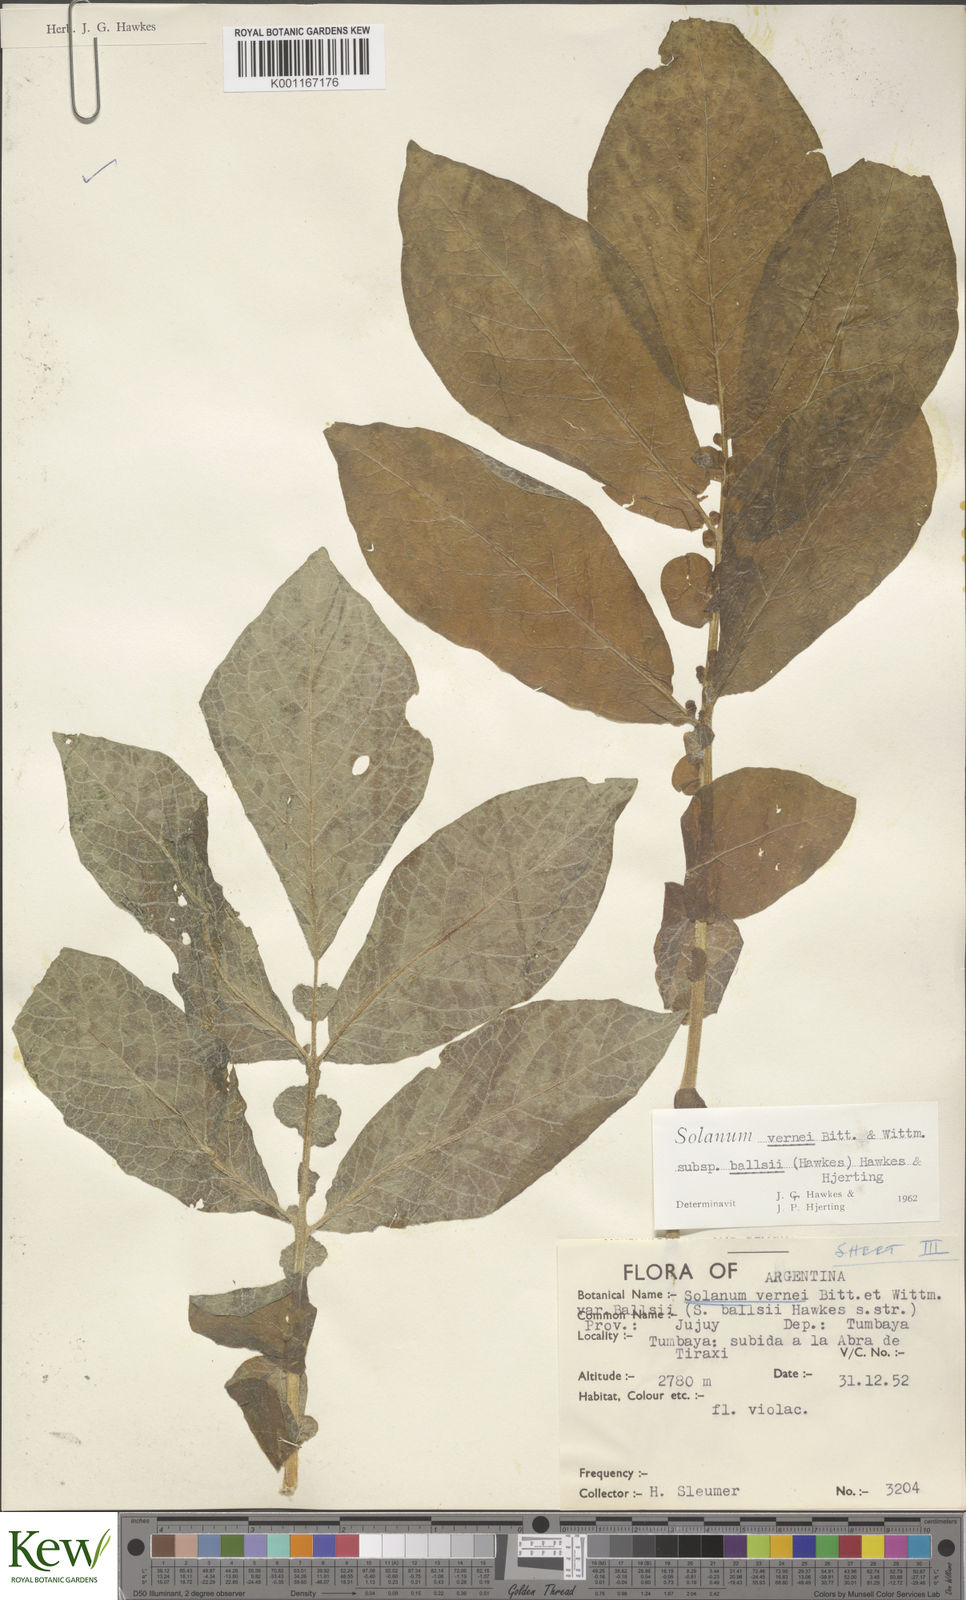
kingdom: Plantae
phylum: Tracheophyta
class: Magnoliopsida
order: Solanales
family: Solanaceae
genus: Solanum
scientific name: Solanum vernei
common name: Purple potato
